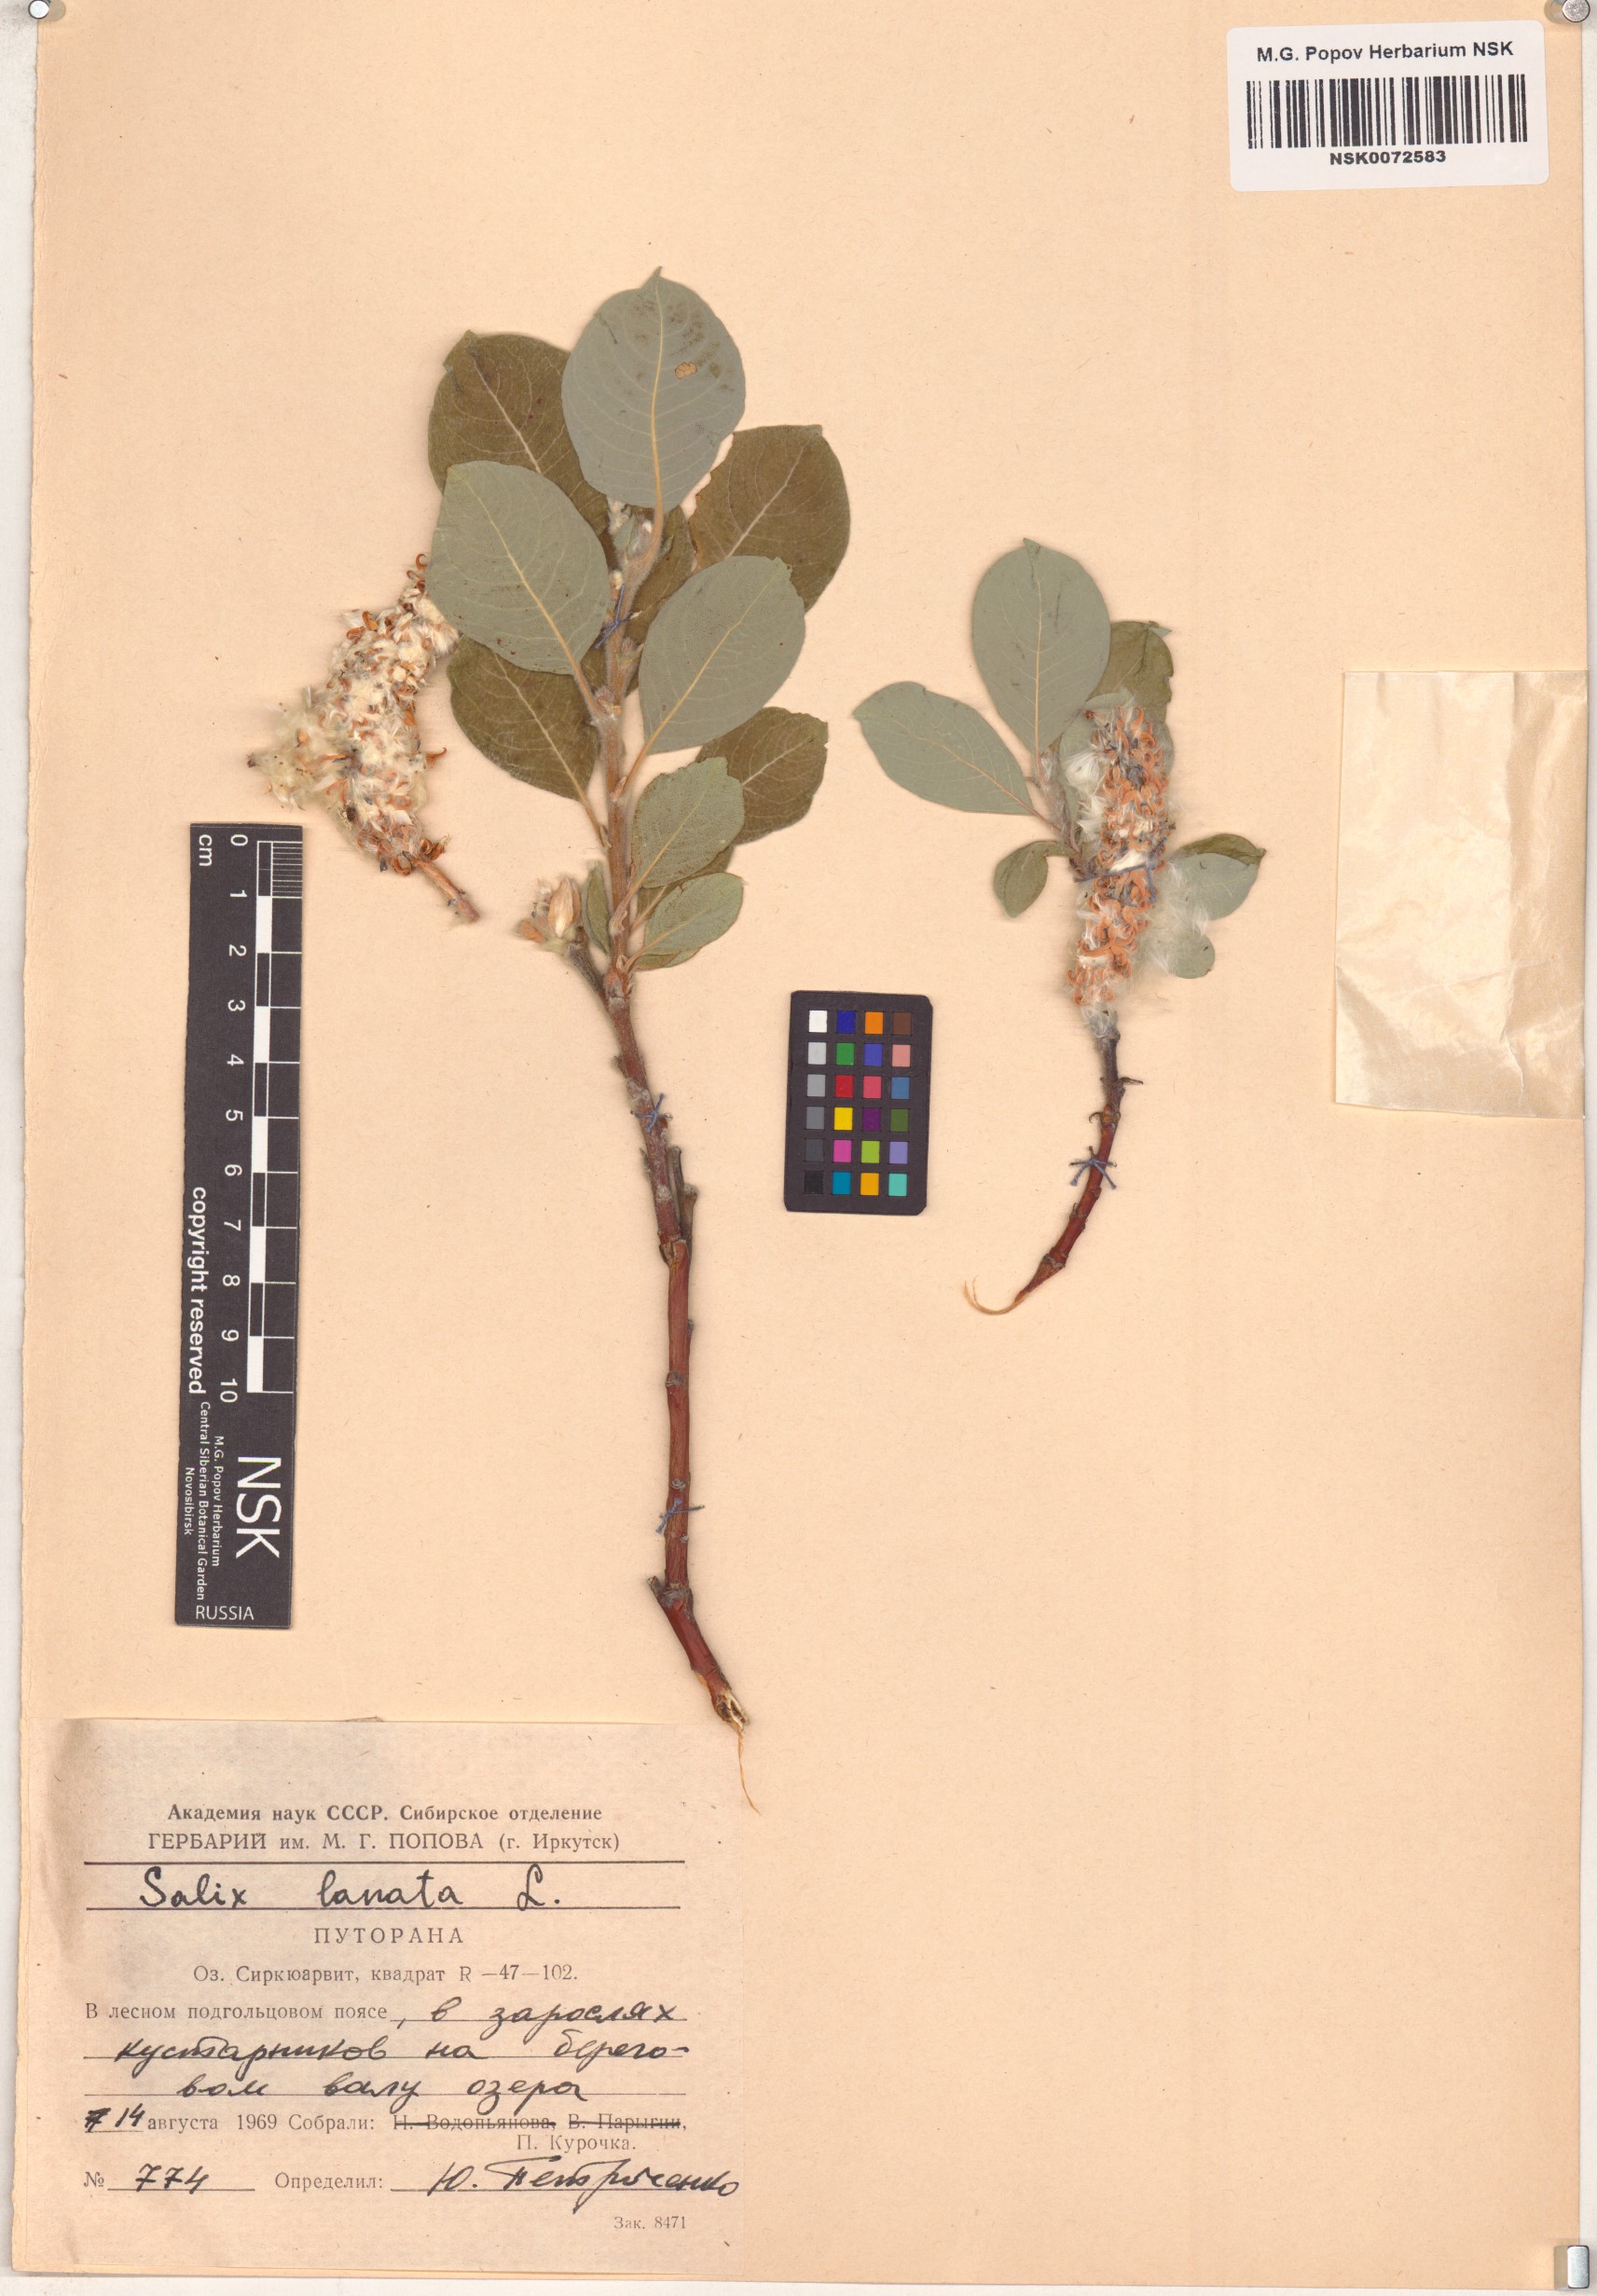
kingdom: Plantae
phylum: Tracheophyta
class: Magnoliopsida
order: Malpighiales
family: Salicaceae
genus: Salix
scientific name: Salix lanata
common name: Woolly willow
